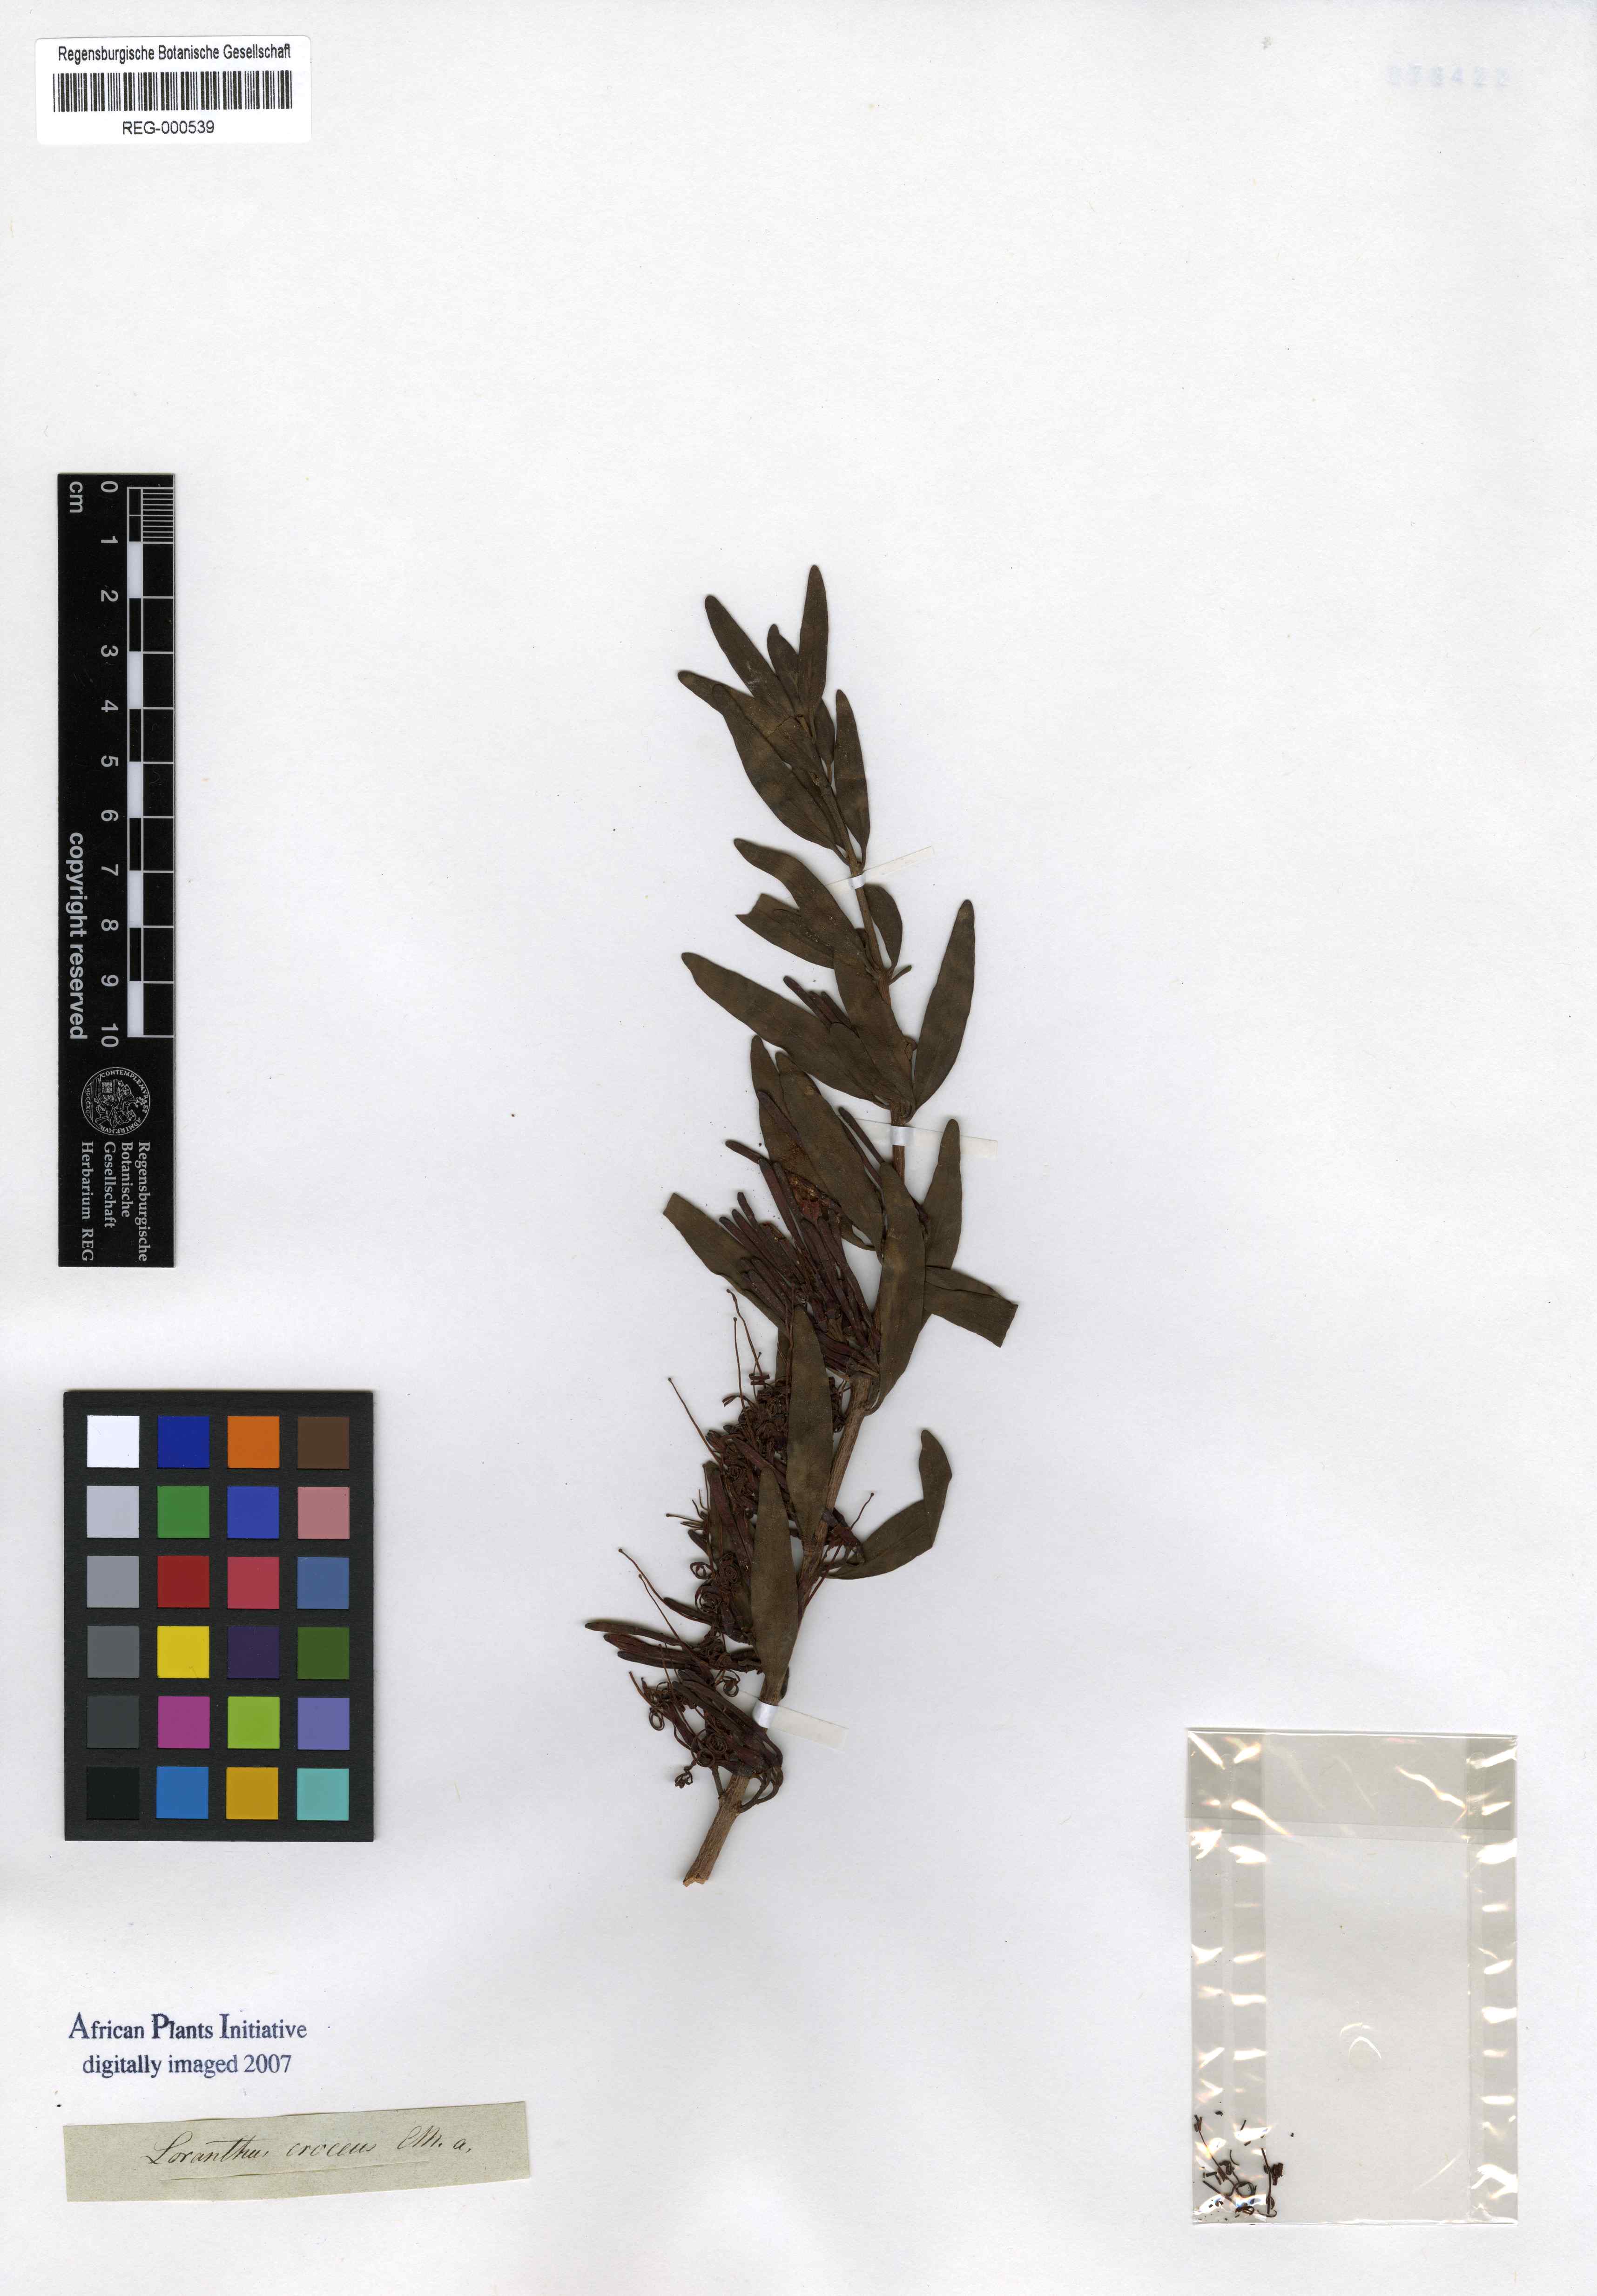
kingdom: Plantae
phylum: Tracheophyta
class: Magnoliopsida
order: Santalales
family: Loranthaceae
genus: Loranthus
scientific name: Loranthus croceus
